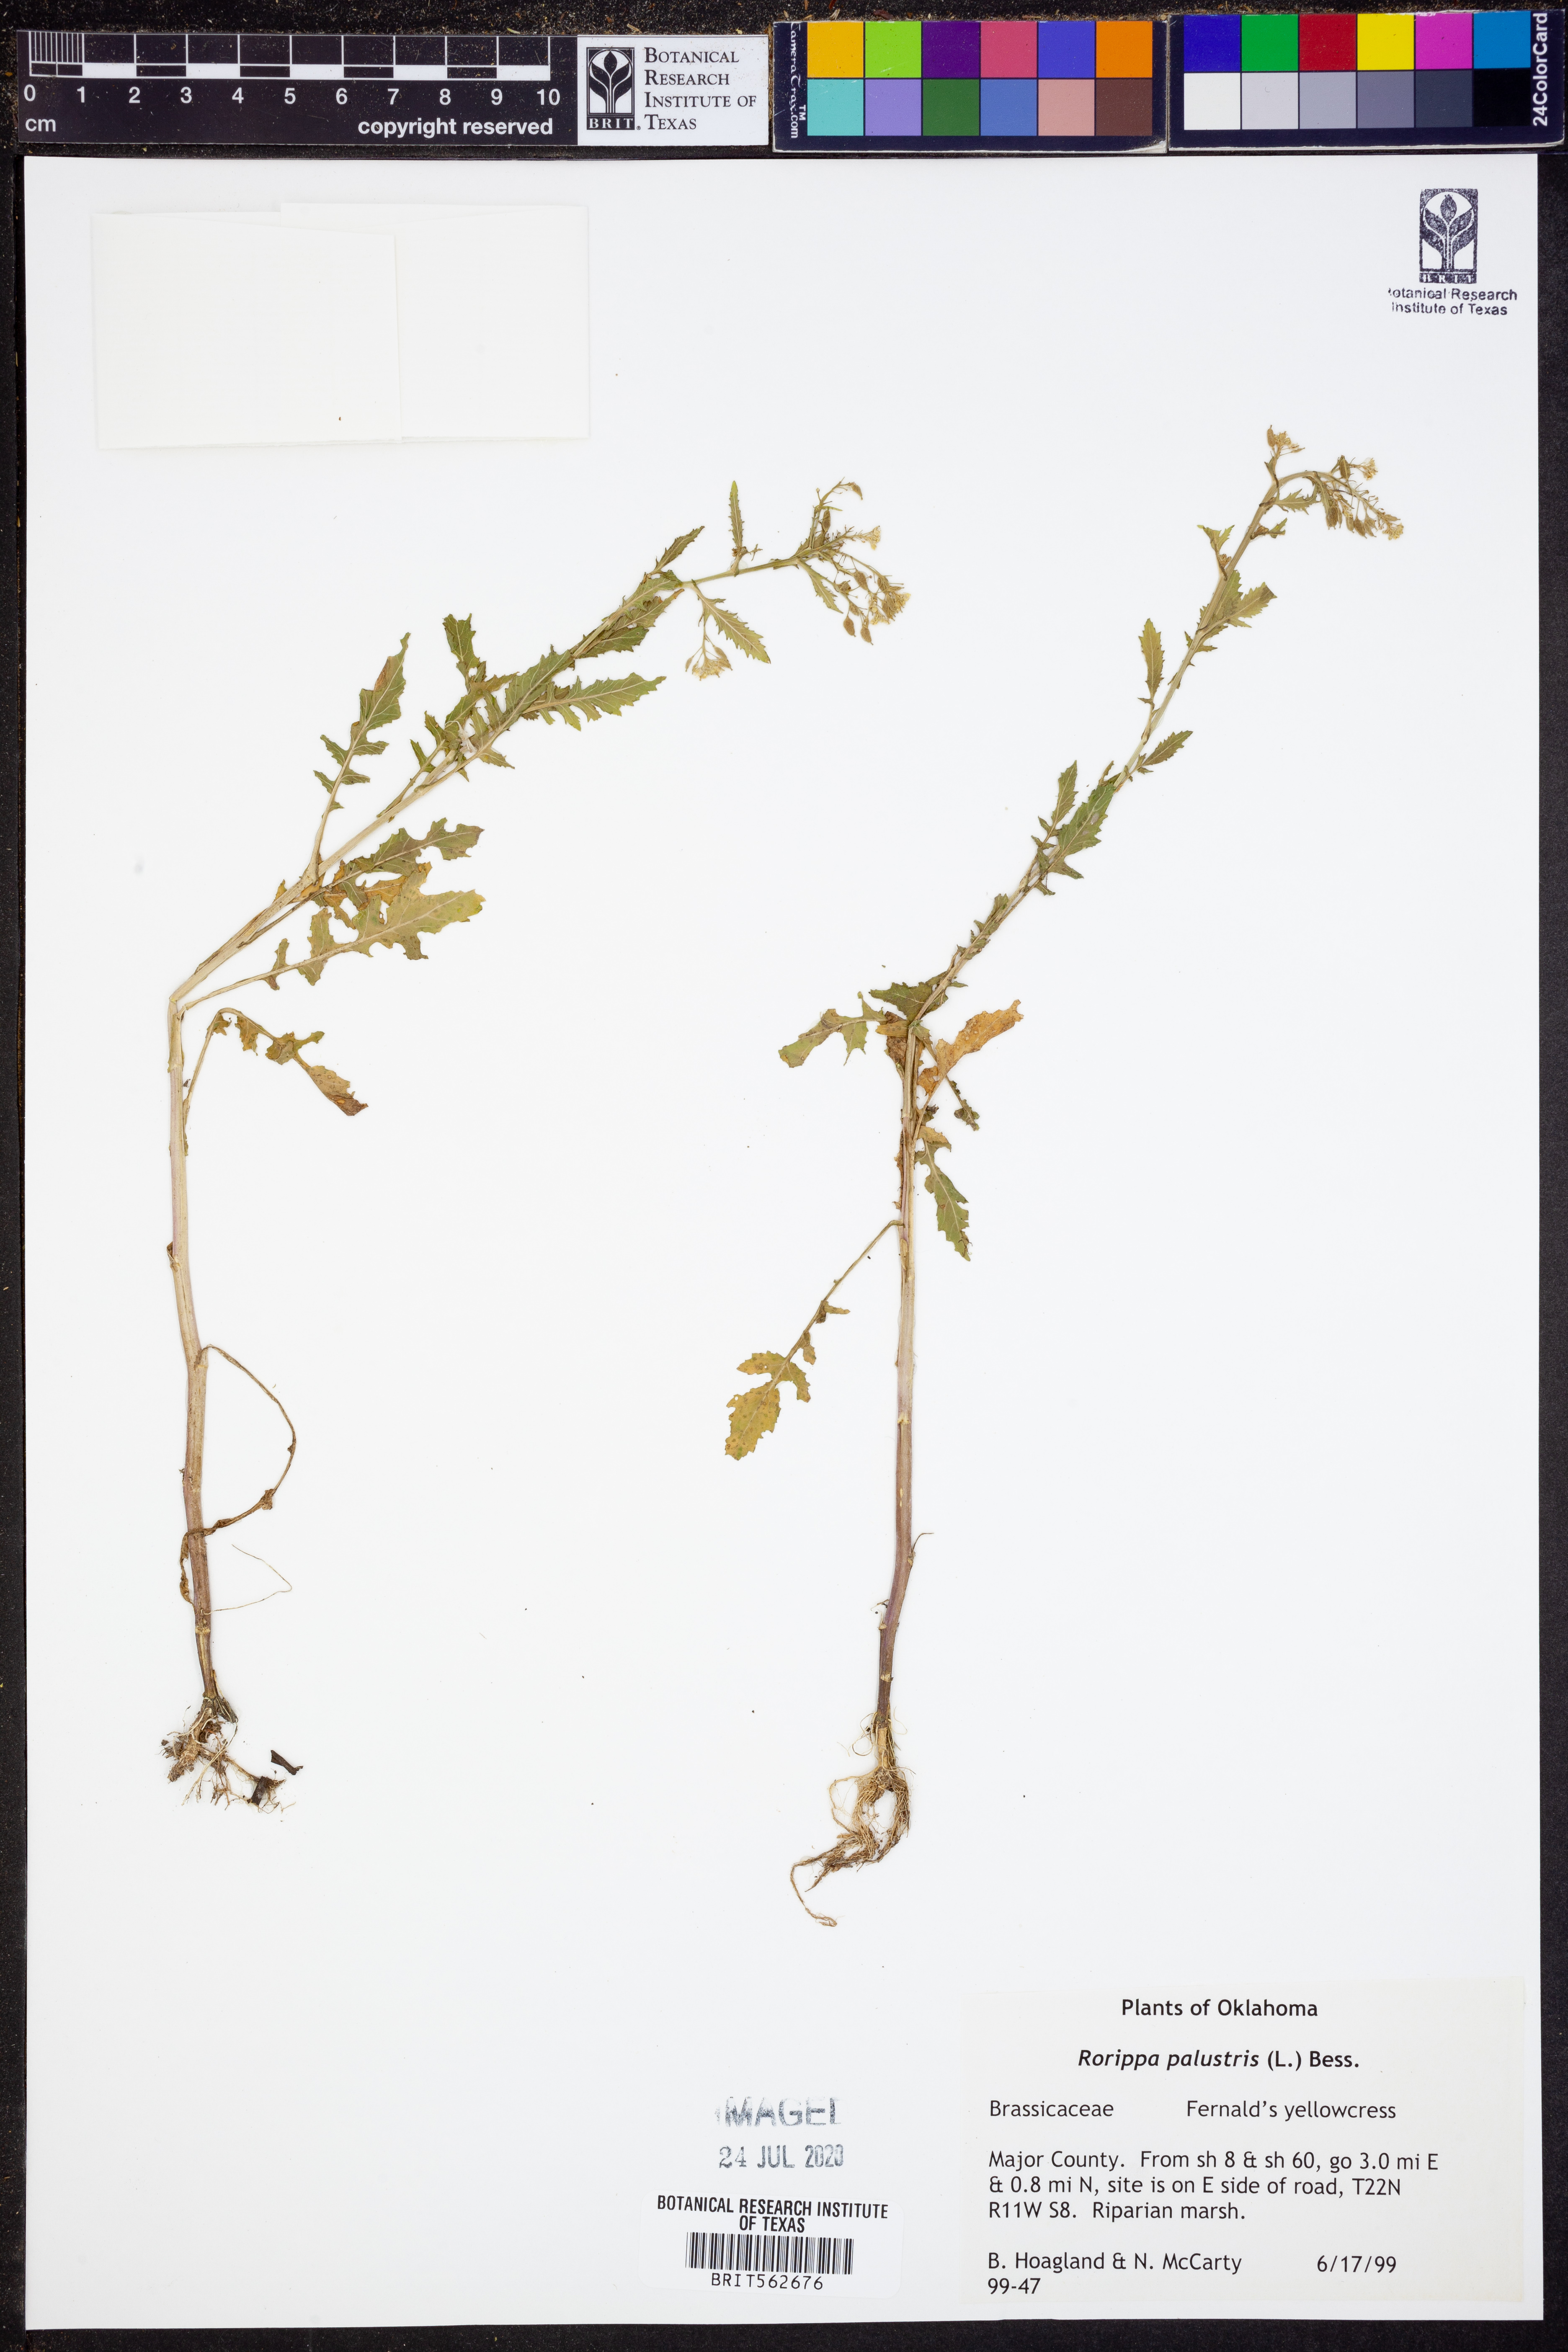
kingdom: Plantae
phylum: Tracheophyta
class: Magnoliopsida
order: Brassicales
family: Brassicaceae
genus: Rorippa
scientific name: Rorippa palustris
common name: Marsh yellow-cress
